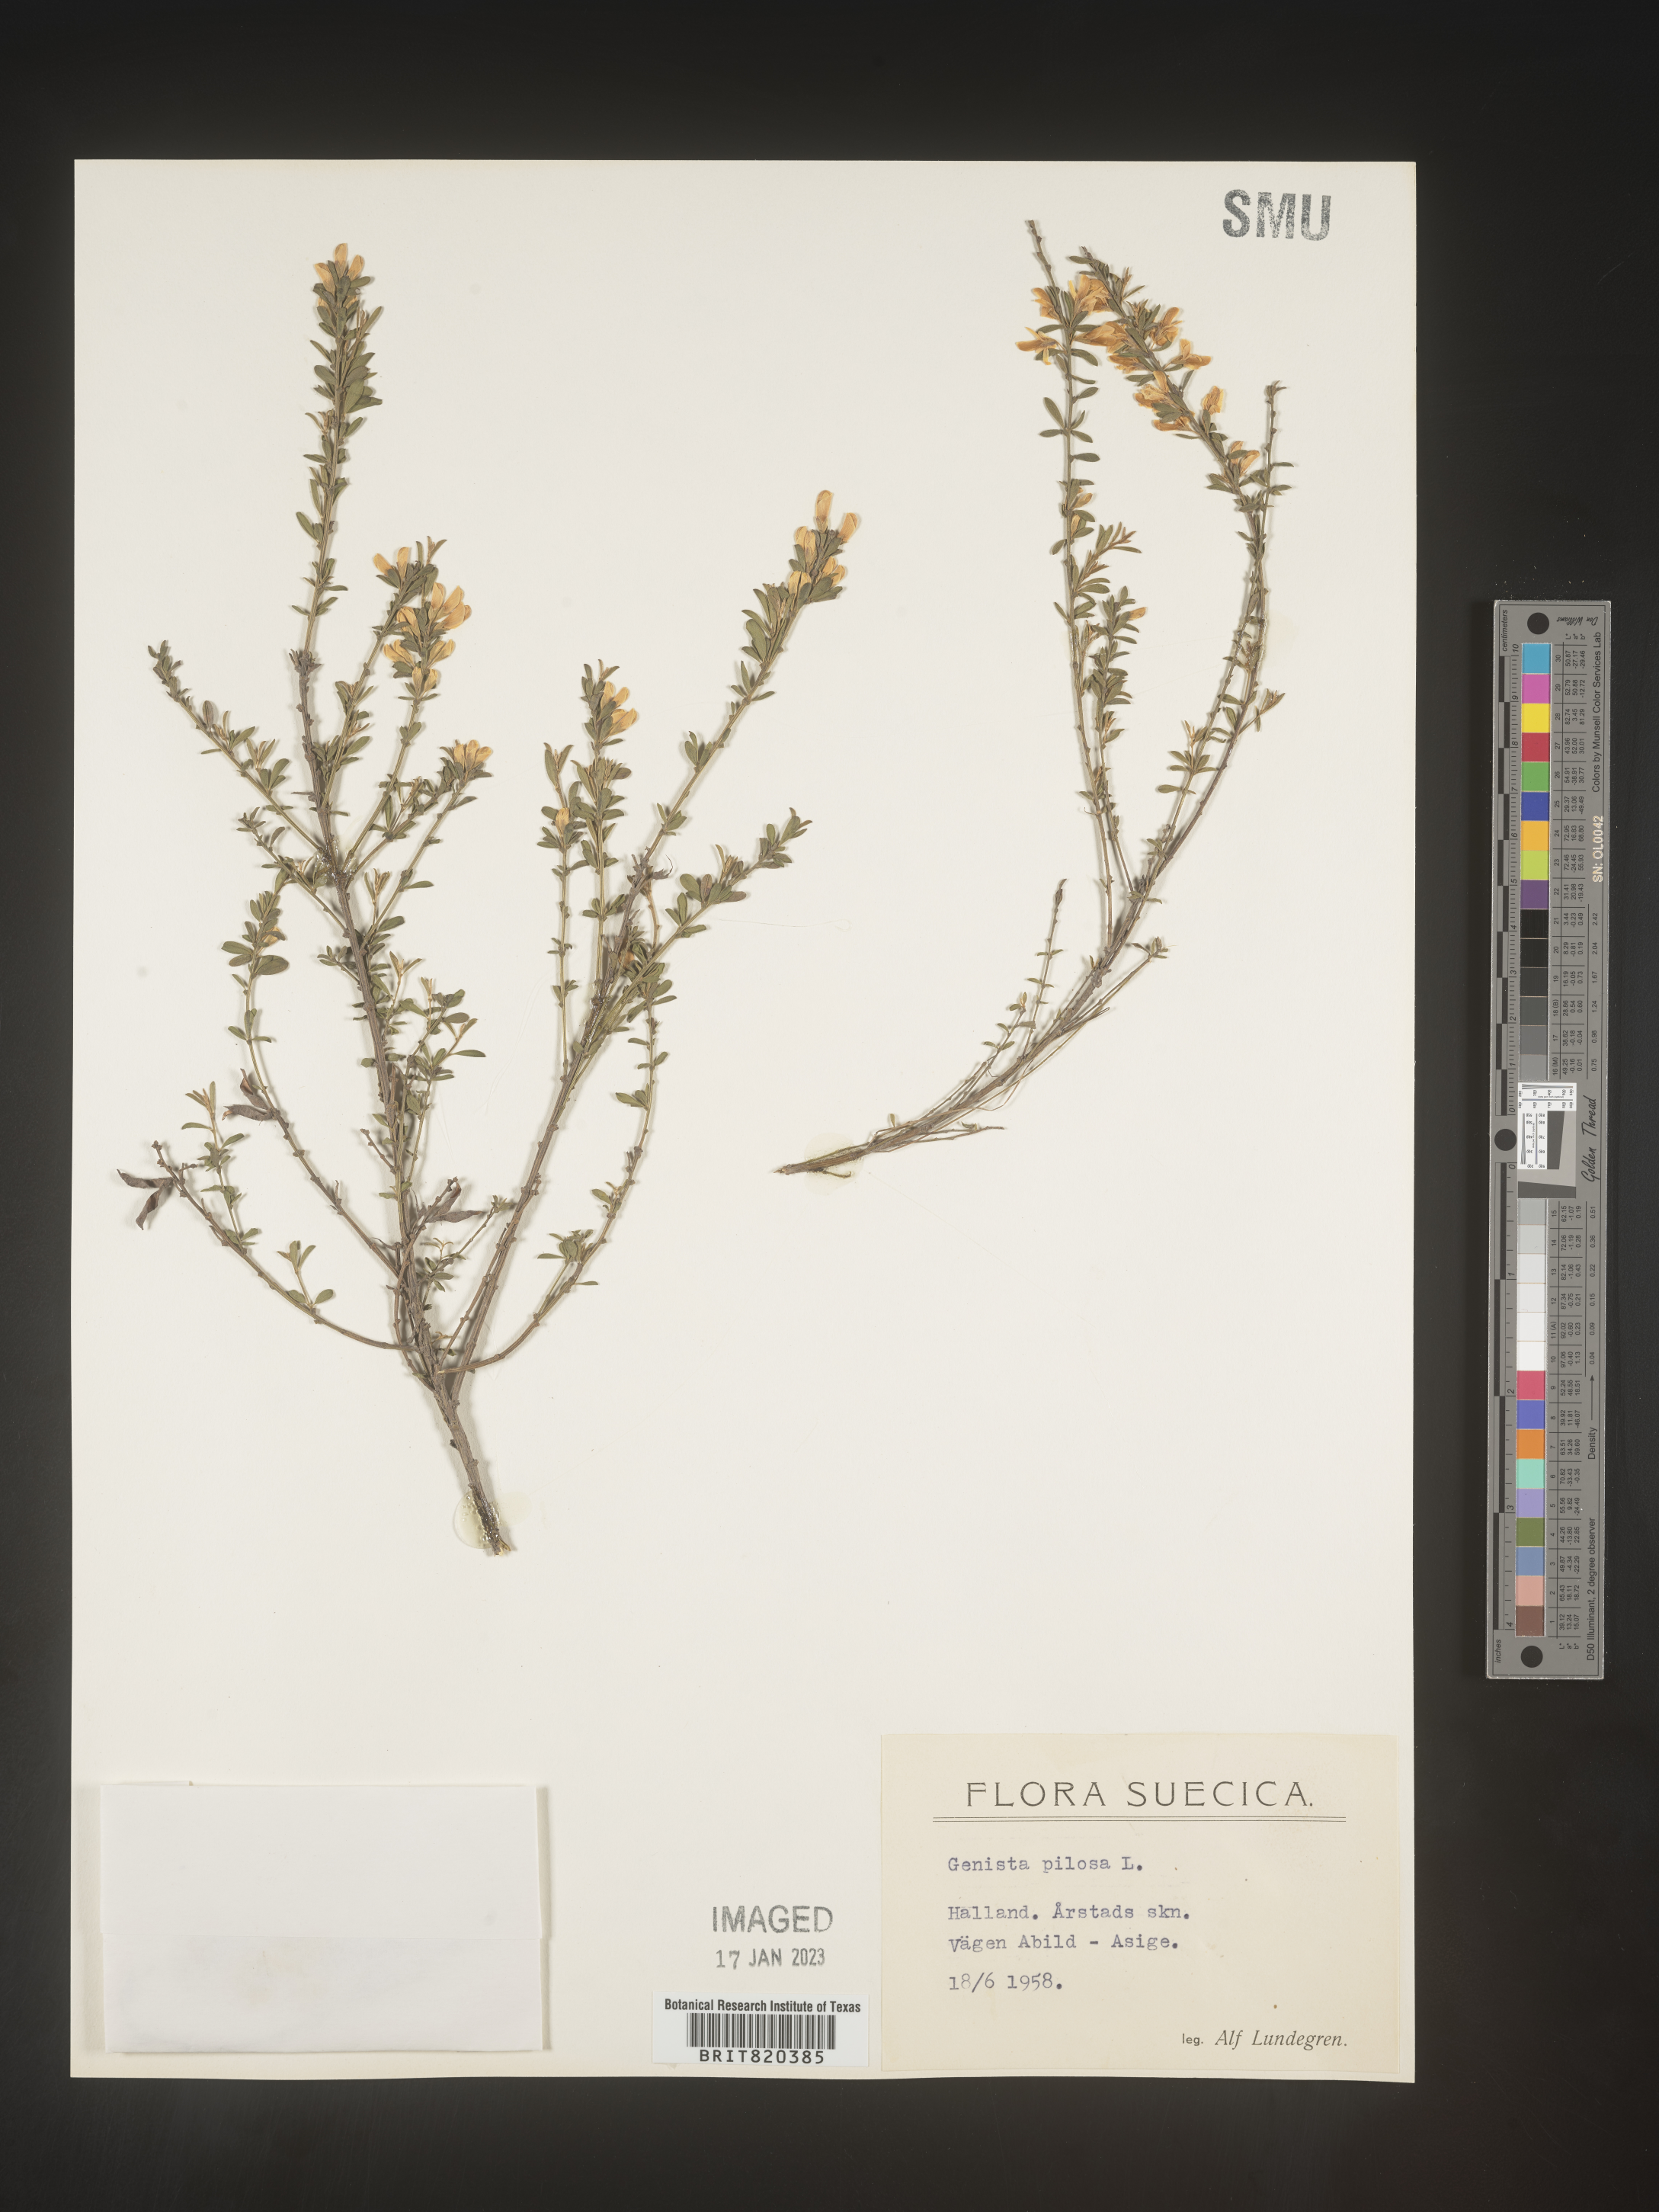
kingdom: Plantae
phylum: Tracheophyta
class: Magnoliopsida
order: Fabales
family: Fabaceae
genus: Genista
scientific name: Genista
